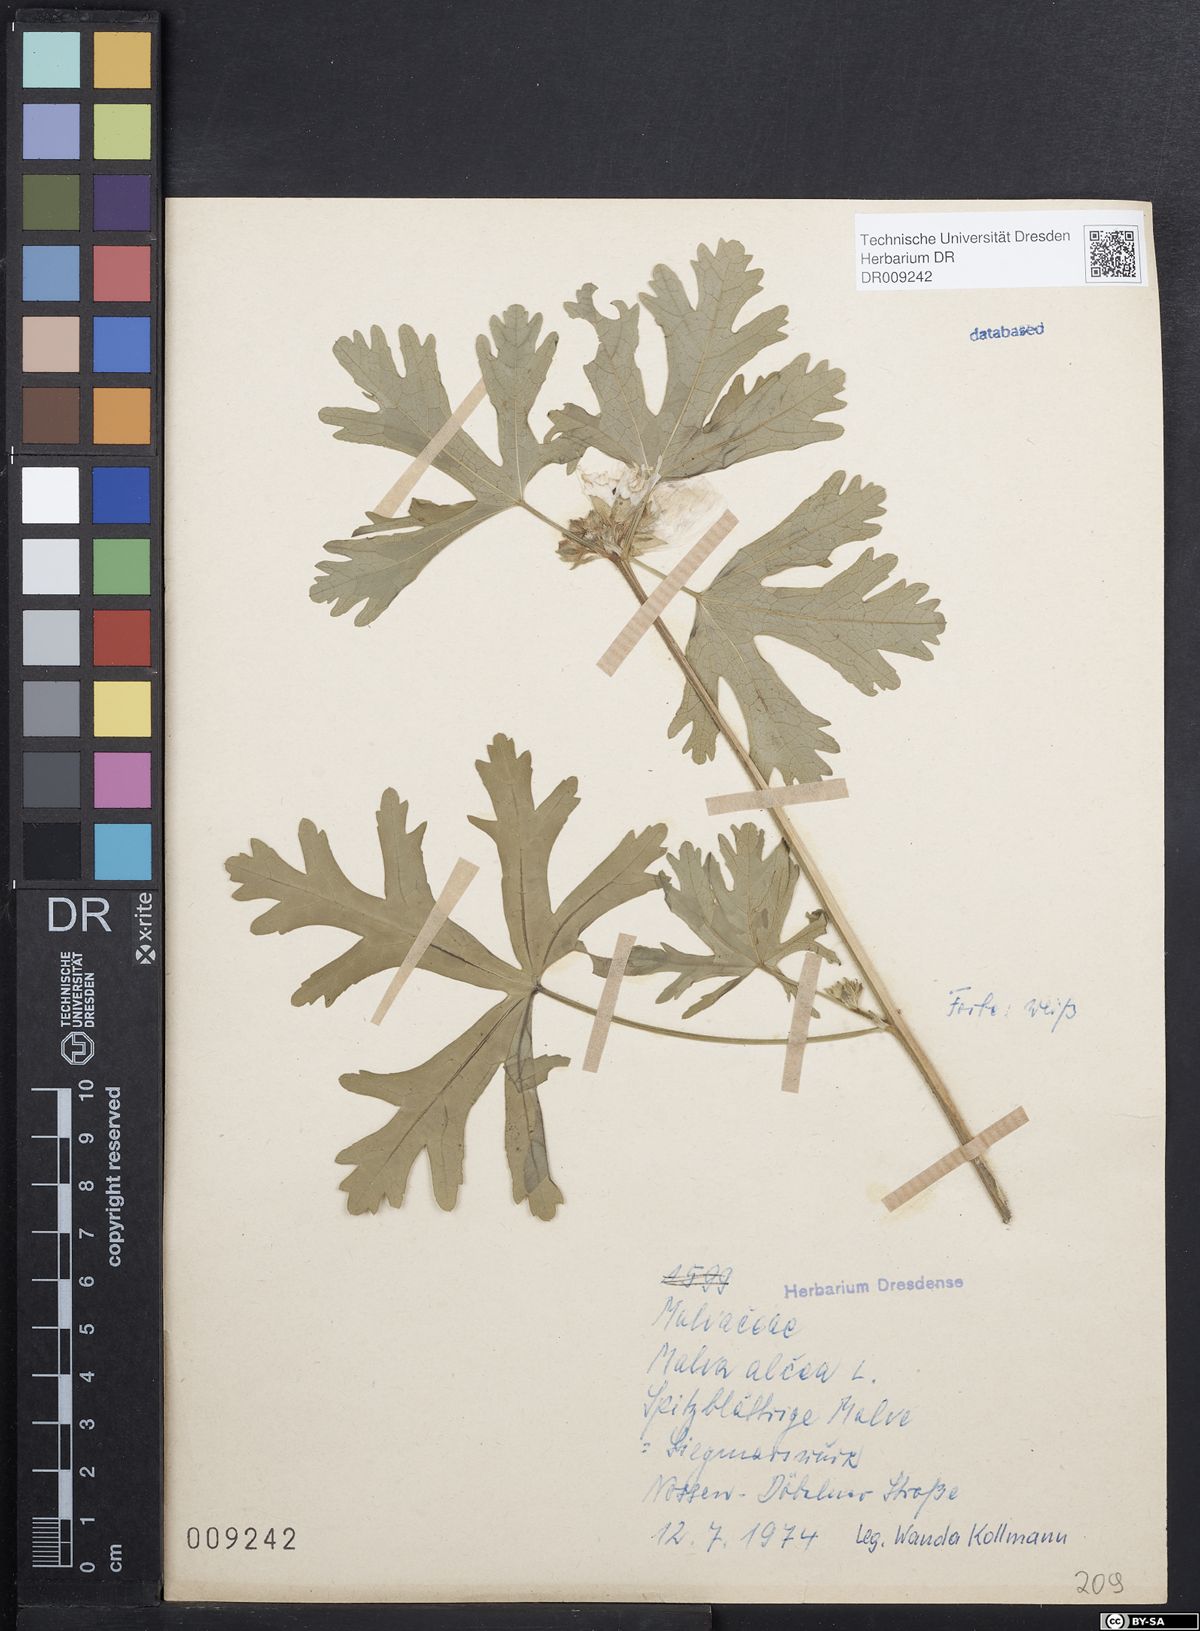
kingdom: Plantae
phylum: Tracheophyta
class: Magnoliopsida
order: Malvales
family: Malvaceae
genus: Malva
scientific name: Malva alcea
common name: Greater musk-mallow
